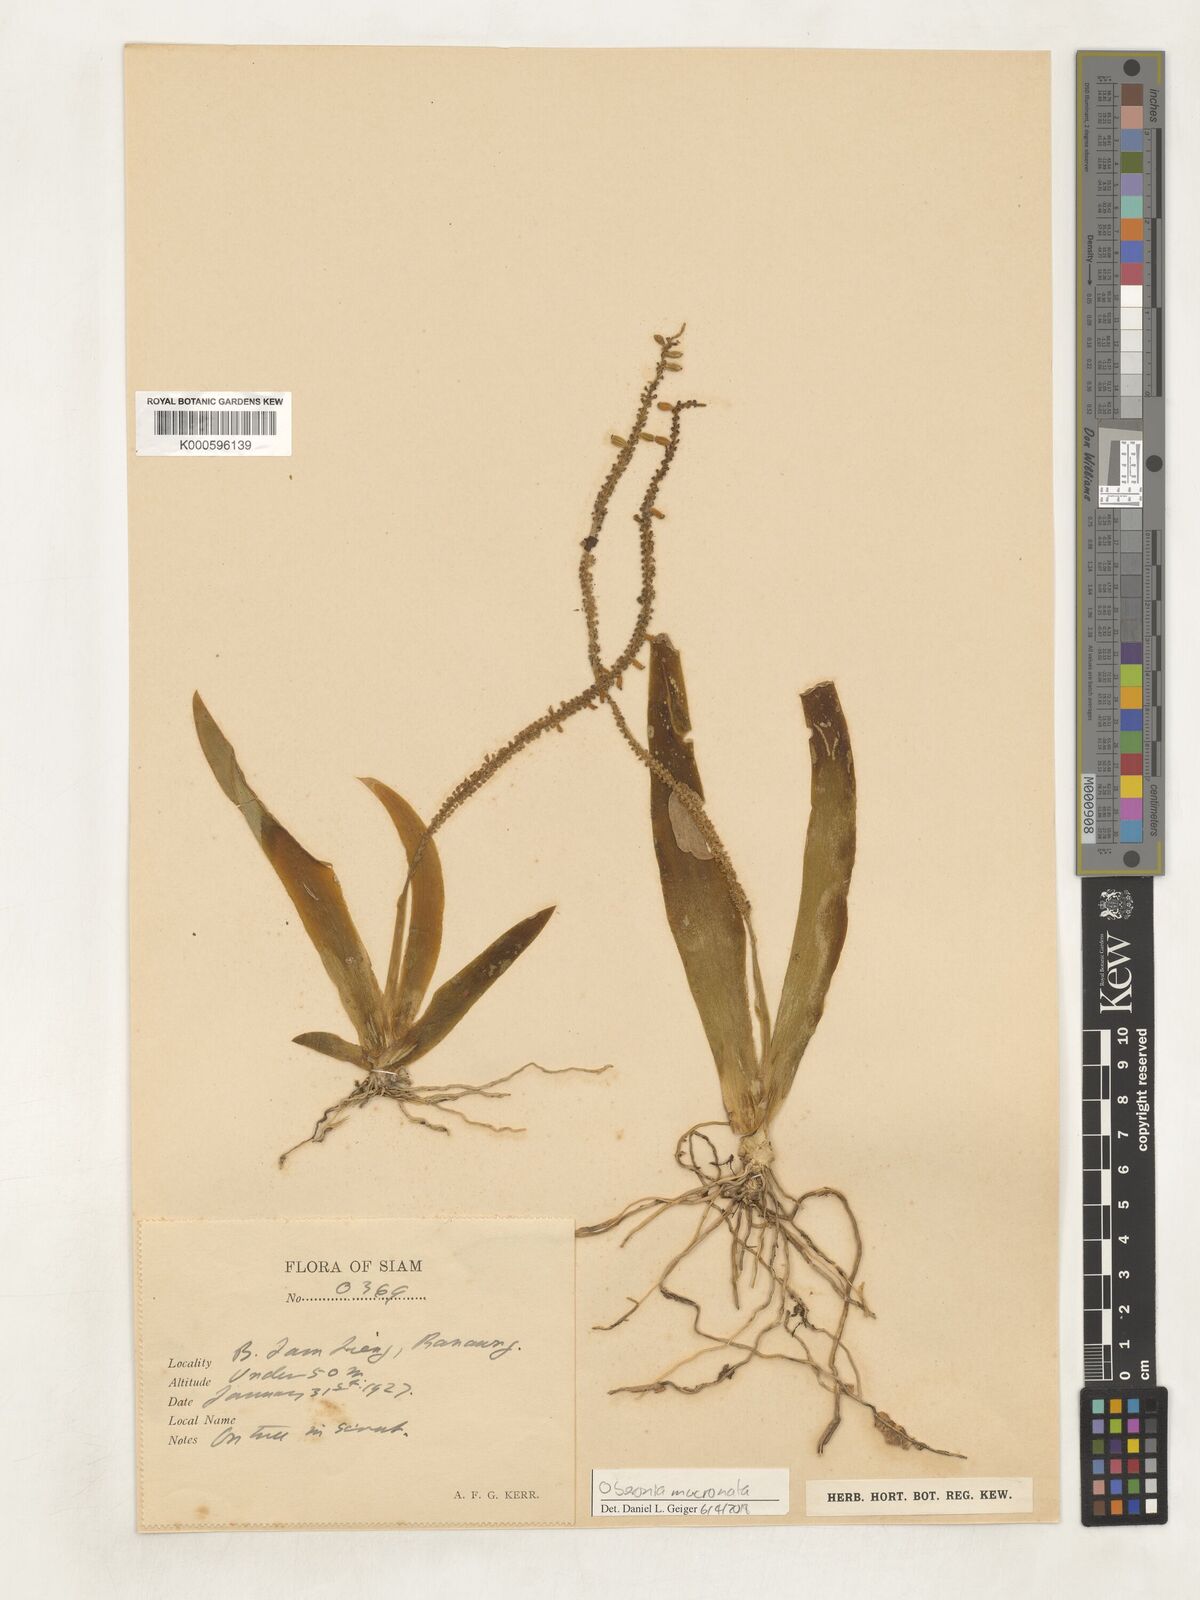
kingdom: Plantae
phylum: Tracheophyta
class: Liliopsida
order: Asparagales
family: Orchidaceae
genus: Oberonia
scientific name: Oberonia mucronata
